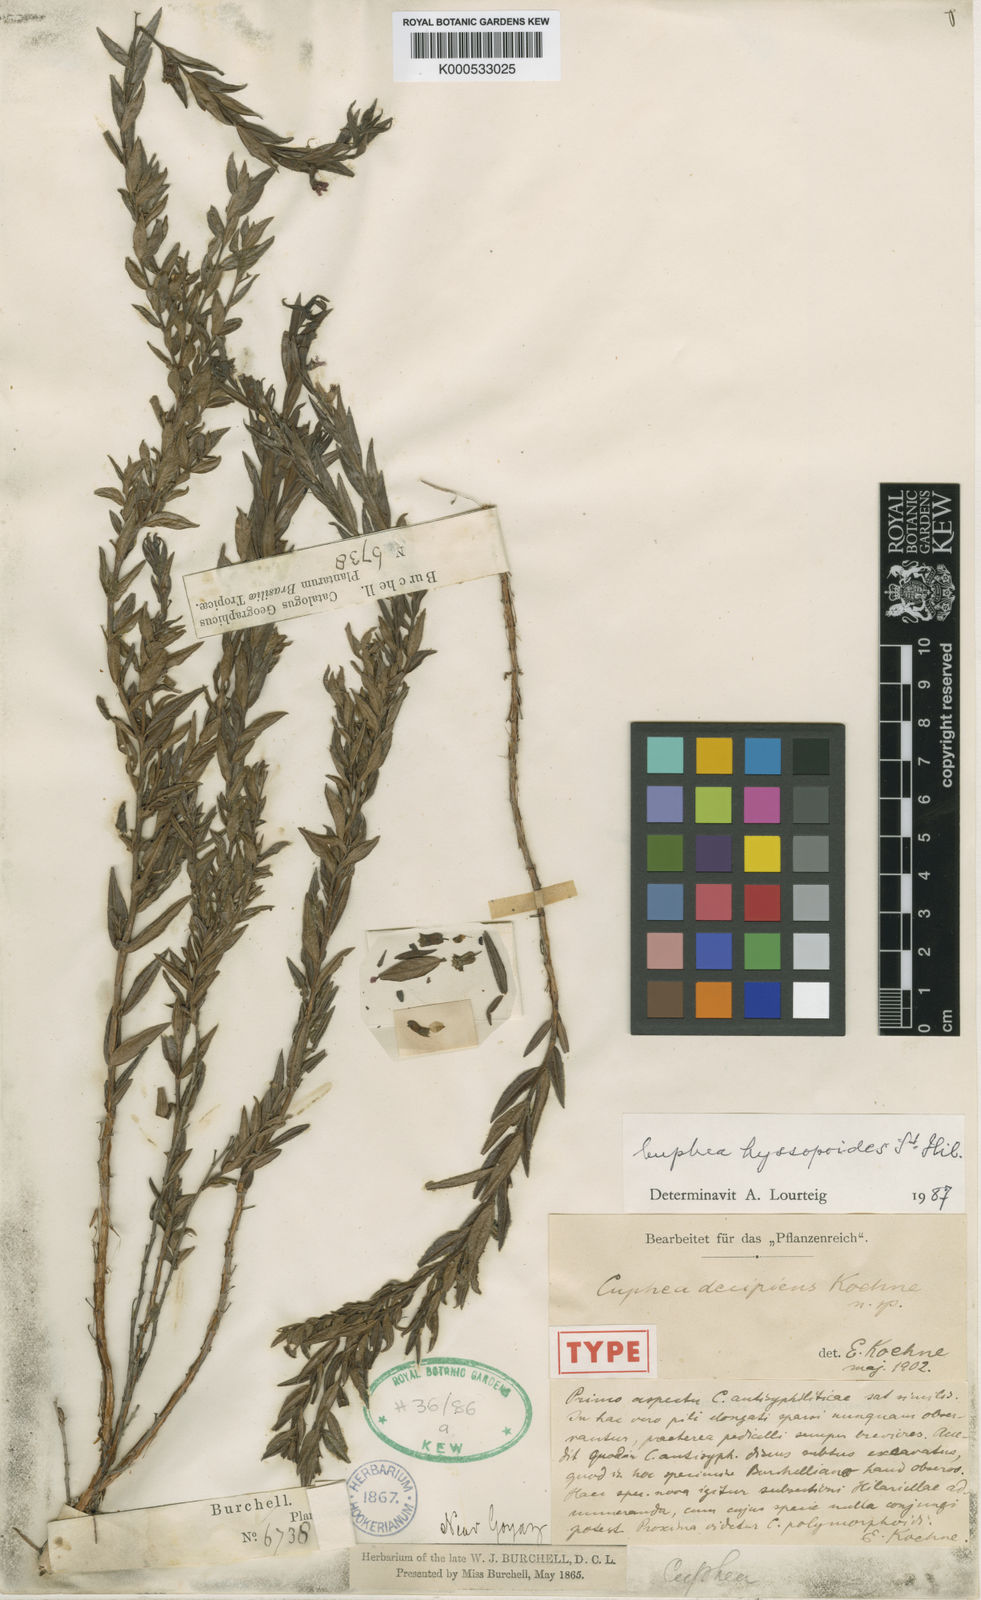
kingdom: Plantae
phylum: Tracheophyta
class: Magnoliopsida
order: Myrtales
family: Lythraceae
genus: Cuphea
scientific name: Cuphea ferruginea
